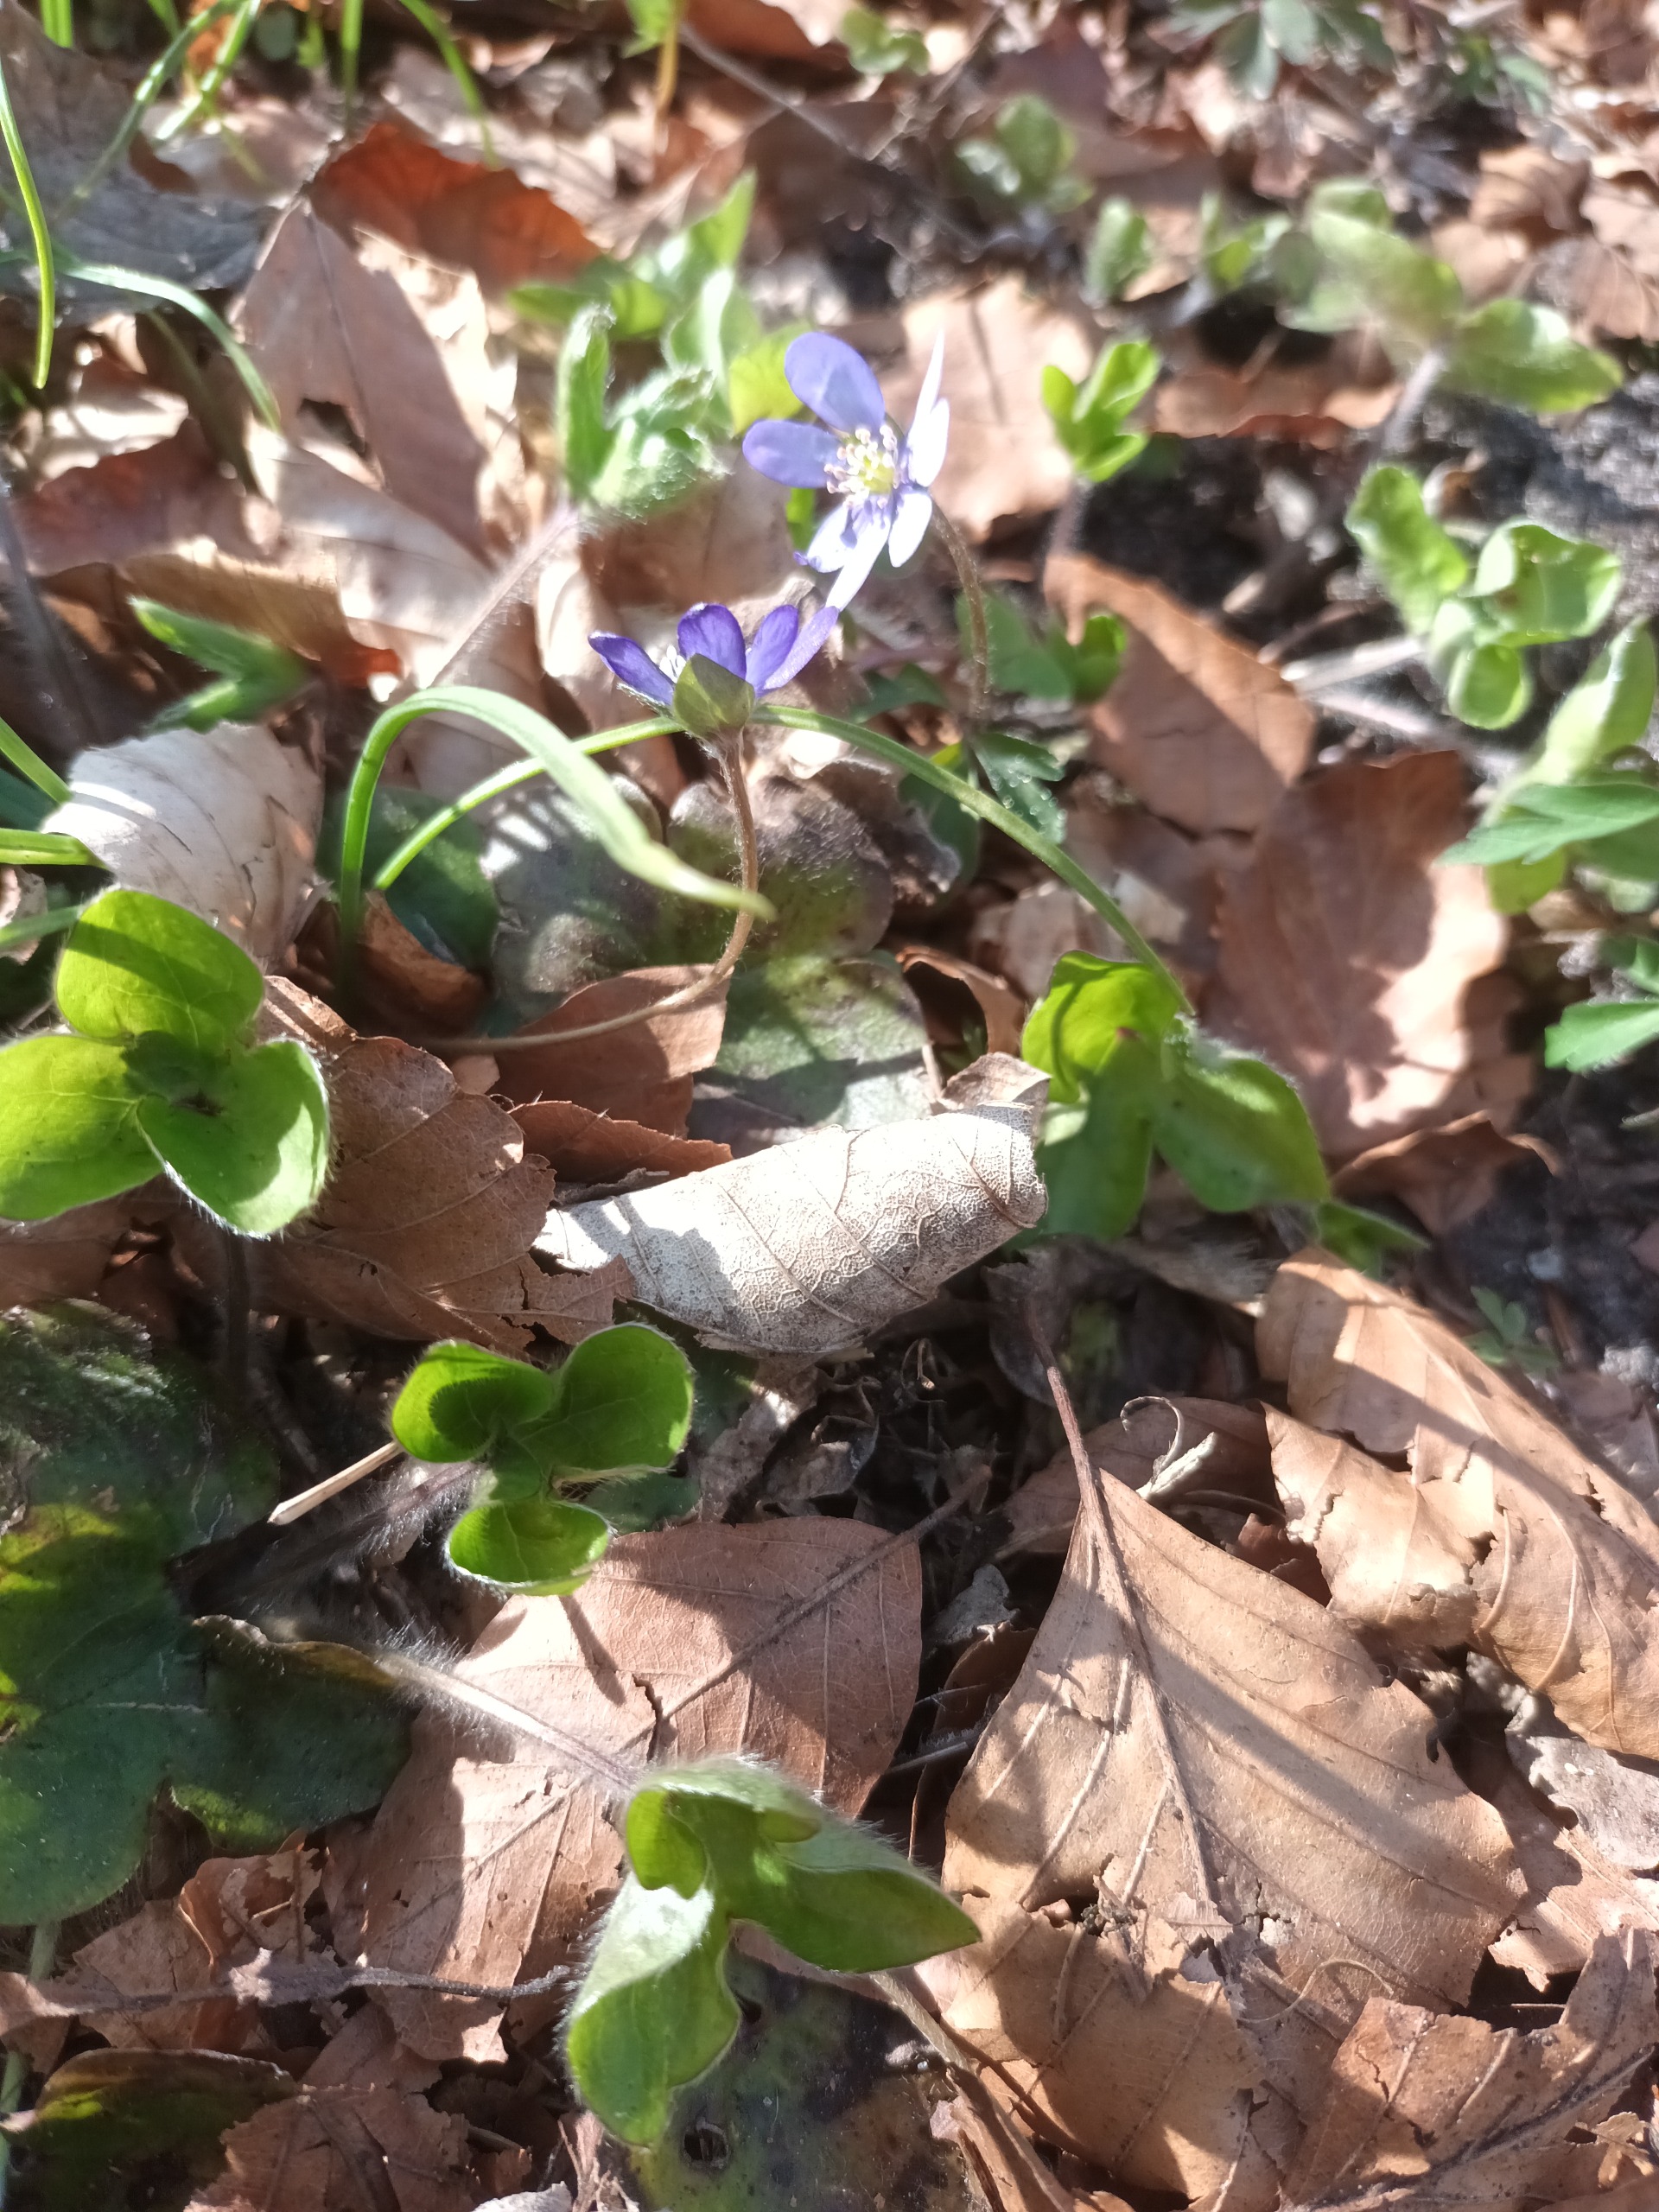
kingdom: Plantae
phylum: Tracheophyta
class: Magnoliopsida
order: Ranunculales
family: Ranunculaceae
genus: Hepatica
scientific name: Hepatica nobilis
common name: Blå anemone
